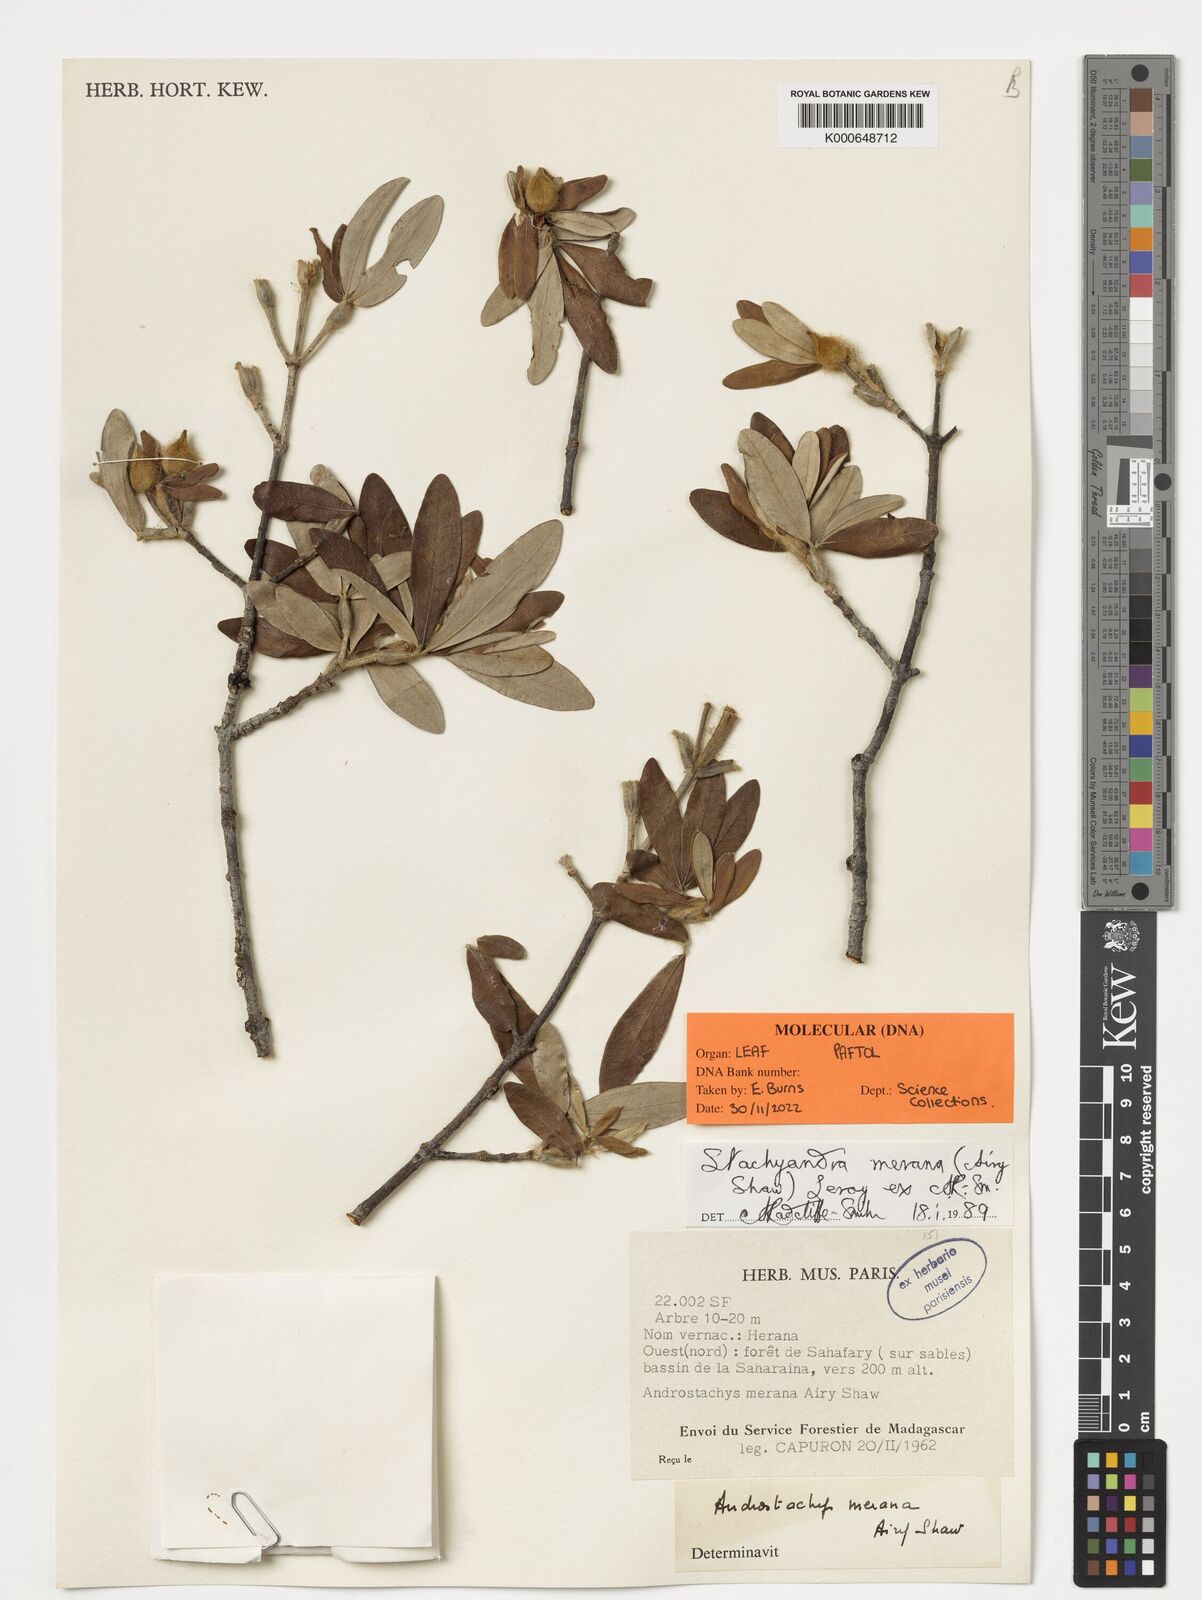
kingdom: Plantae
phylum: Tracheophyta
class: Magnoliopsida
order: Malpighiales
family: Picrodendraceae
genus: Stachyandra
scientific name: Stachyandra merana
